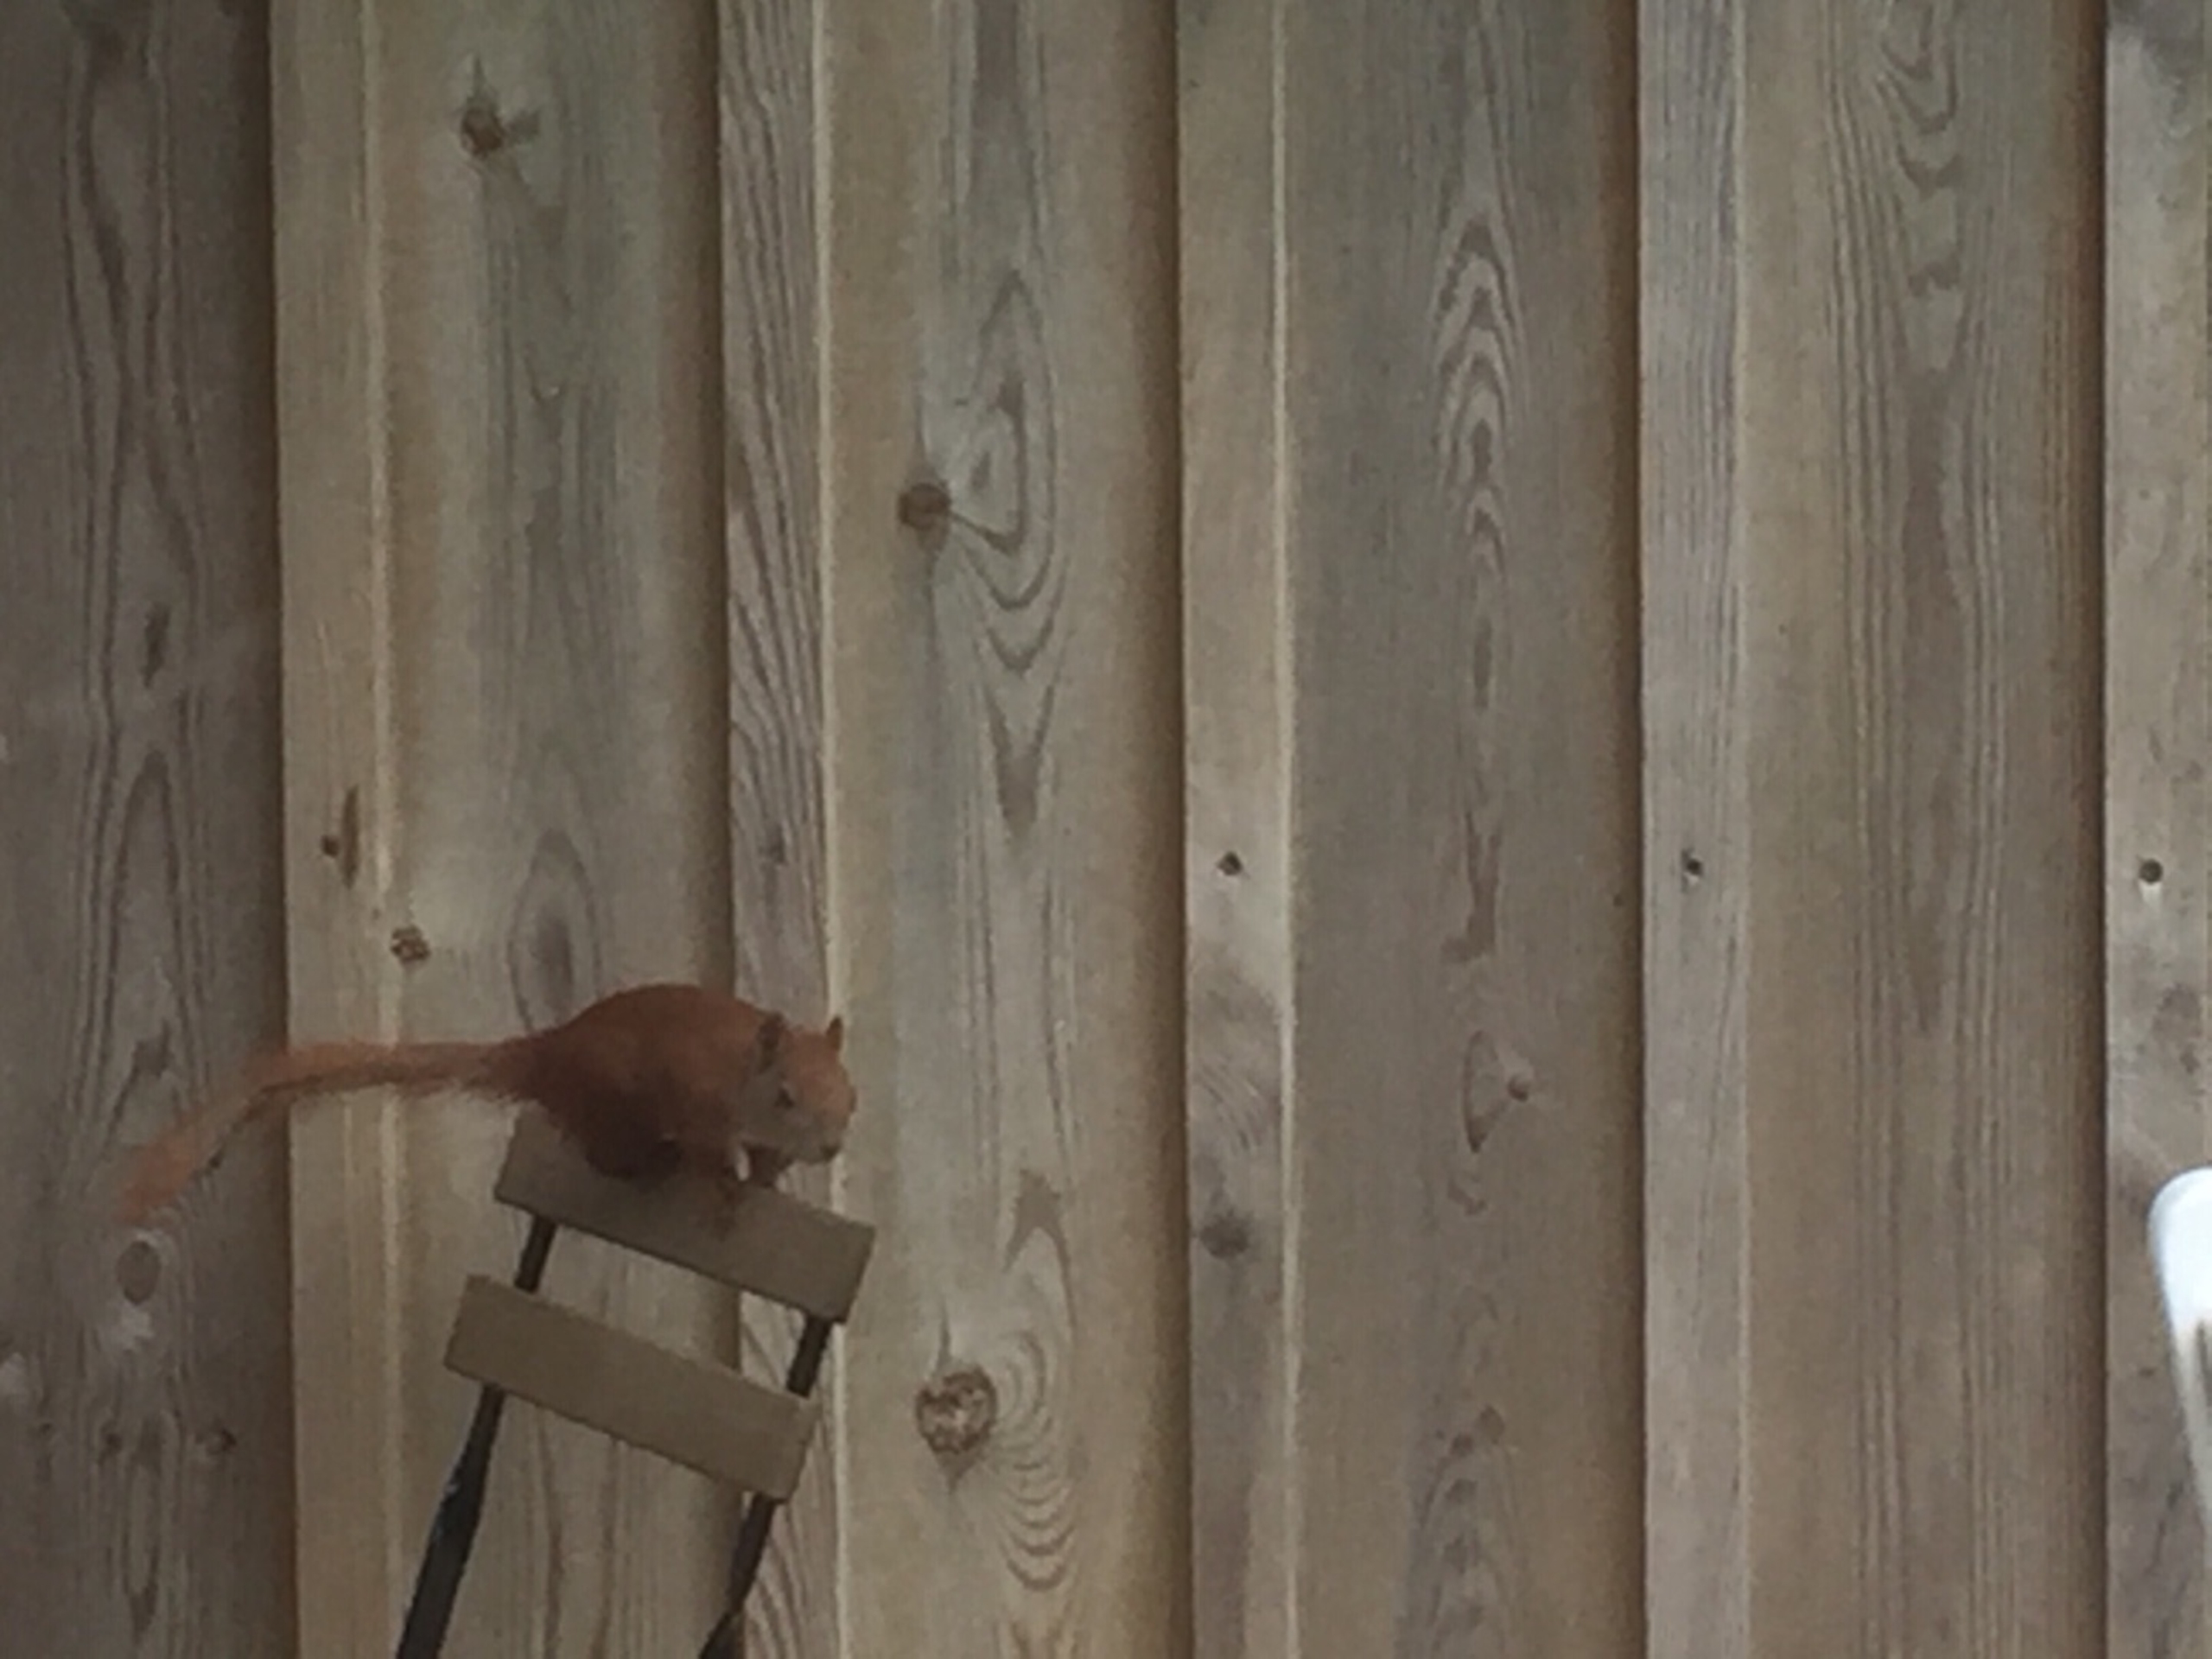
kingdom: Animalia
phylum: Chordata
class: Mammalia
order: Rodentia
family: Sciuridae
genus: Sciurus
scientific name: Sciurus vulgaris
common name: Egern
